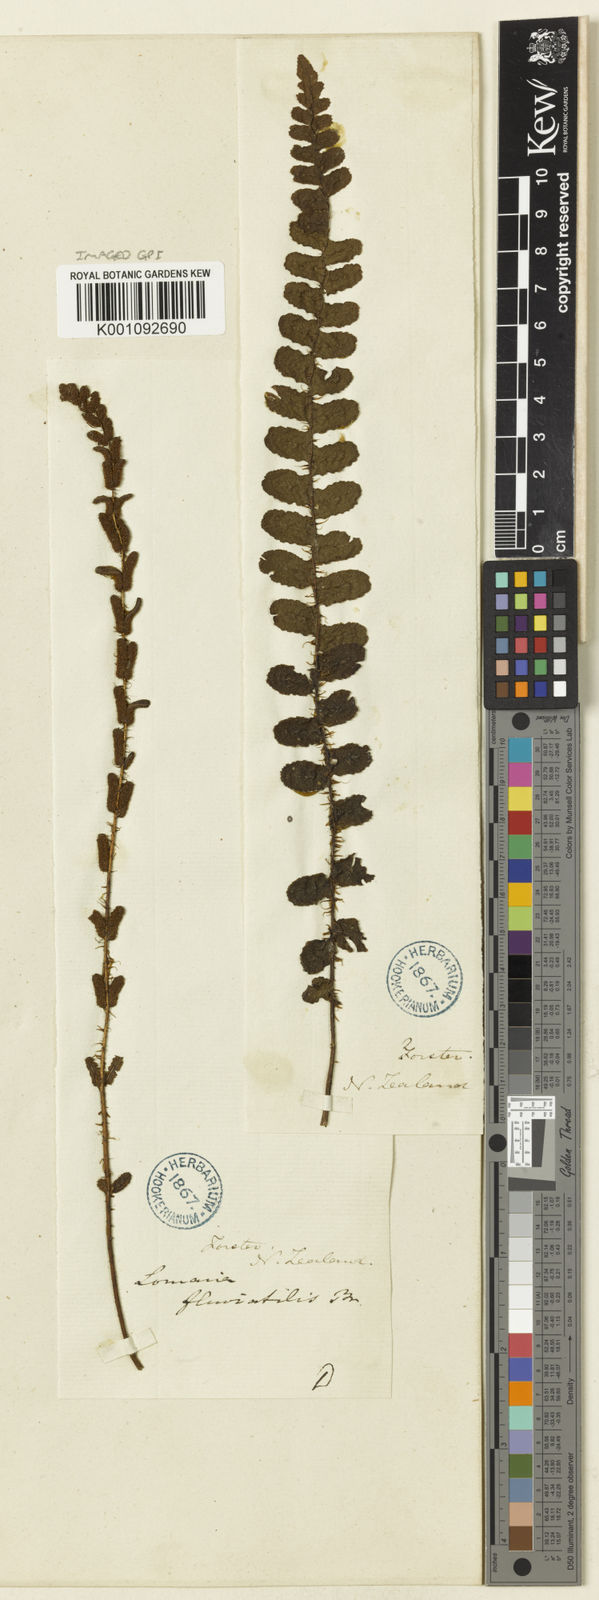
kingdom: Plantae
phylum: Tracheophyta
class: Polypodiopsida
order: Polypodiales
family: Blechnaceae
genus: Cranfillia
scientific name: Cranfillia fluviatilis
